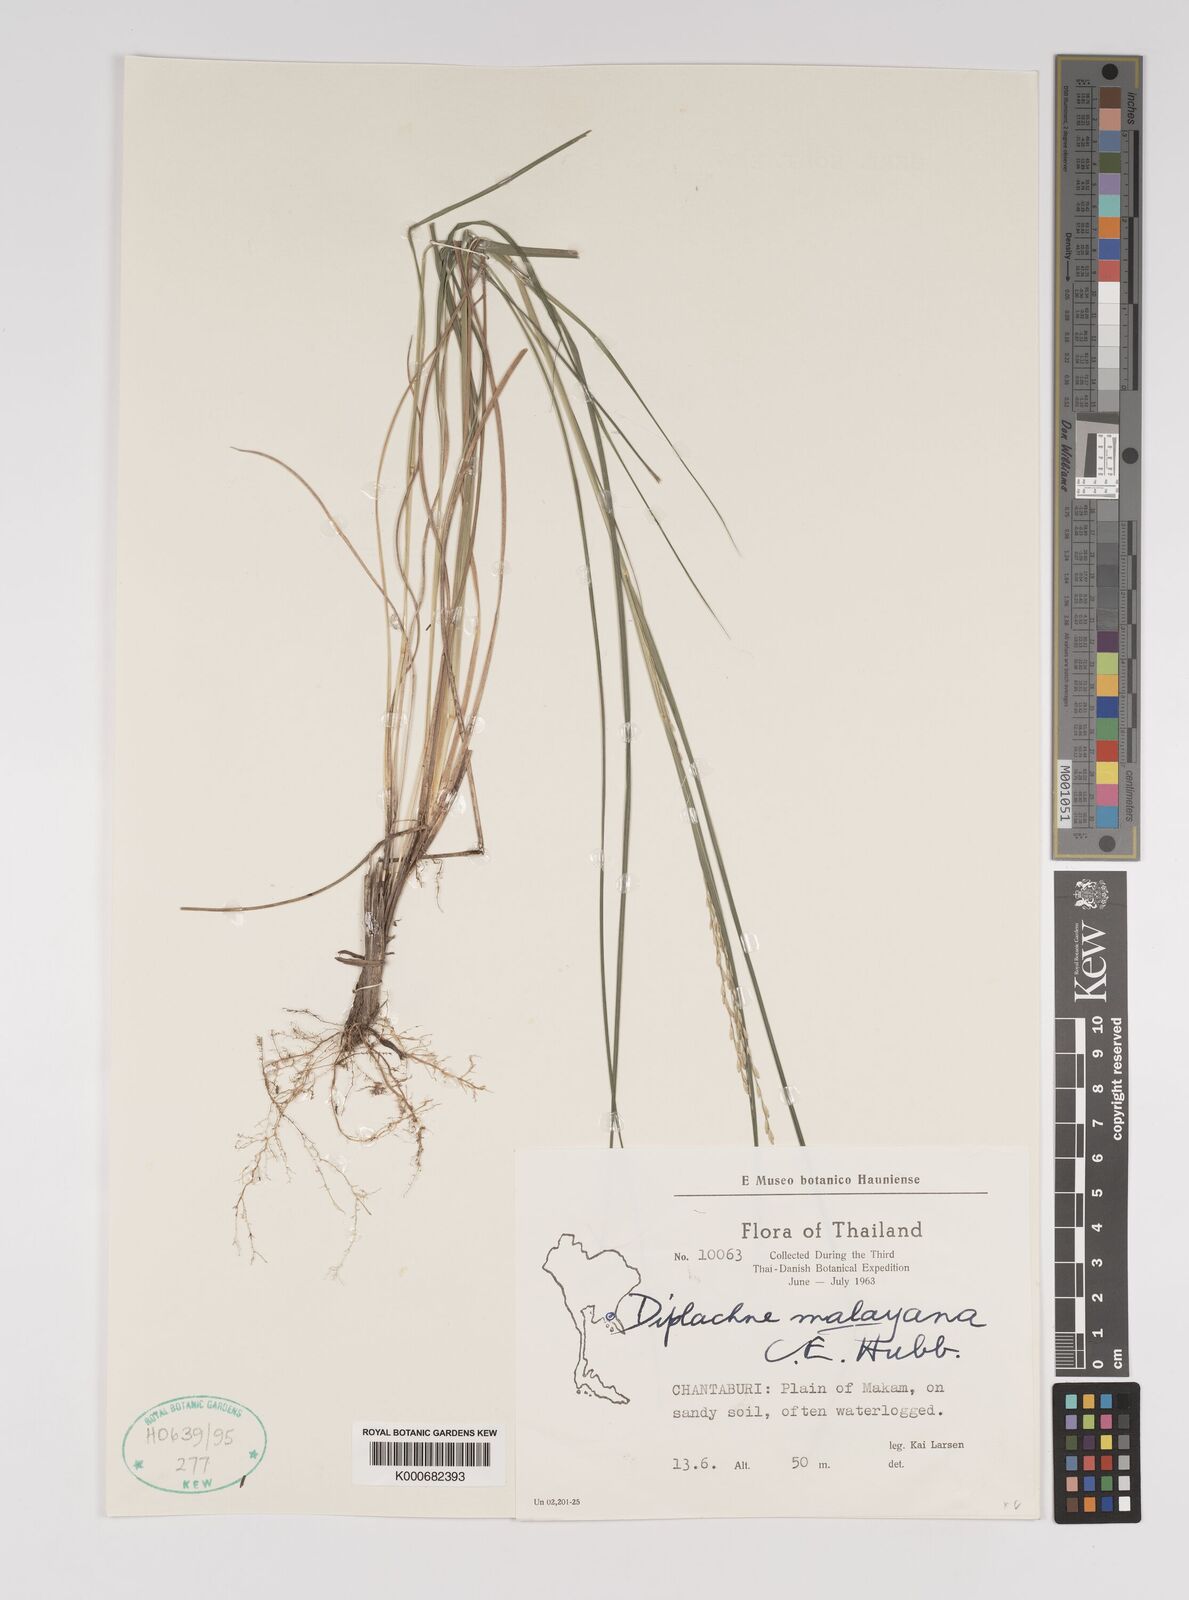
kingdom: Plantae
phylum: Tracheophyta
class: Liliopsida
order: Poales
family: Poaceae
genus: Leptochloa
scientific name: Leptochloa malayana
